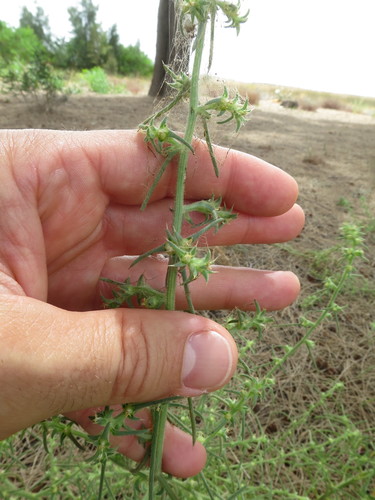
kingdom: Plantae
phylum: Tracheophyta
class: Magnoliopsida
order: Caryophyllales
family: Amaranthaceae
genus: Salsola
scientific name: Salsola kali
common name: Saltwort
